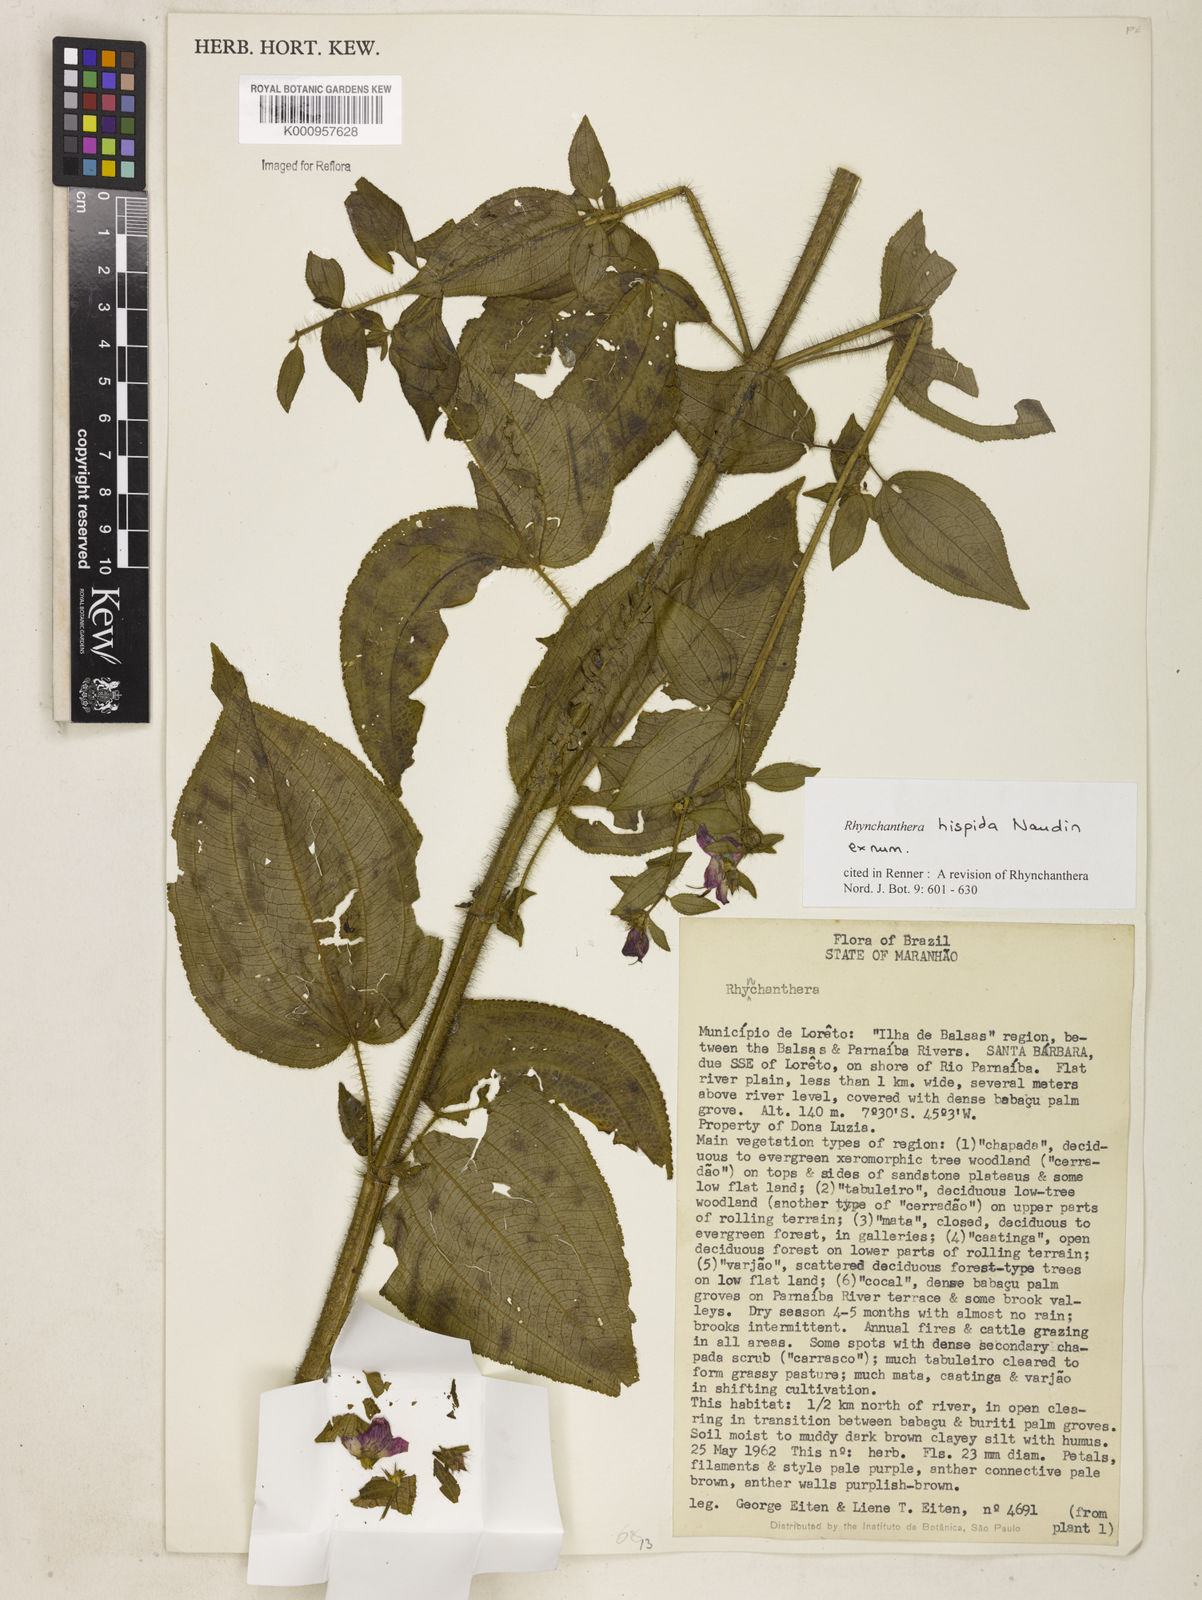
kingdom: Plantae
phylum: Tracheophyta
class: Magnoliopsida
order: Myrtales
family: Melastomataceae
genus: Rhynchanthera
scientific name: Rhynchanthera hispida
